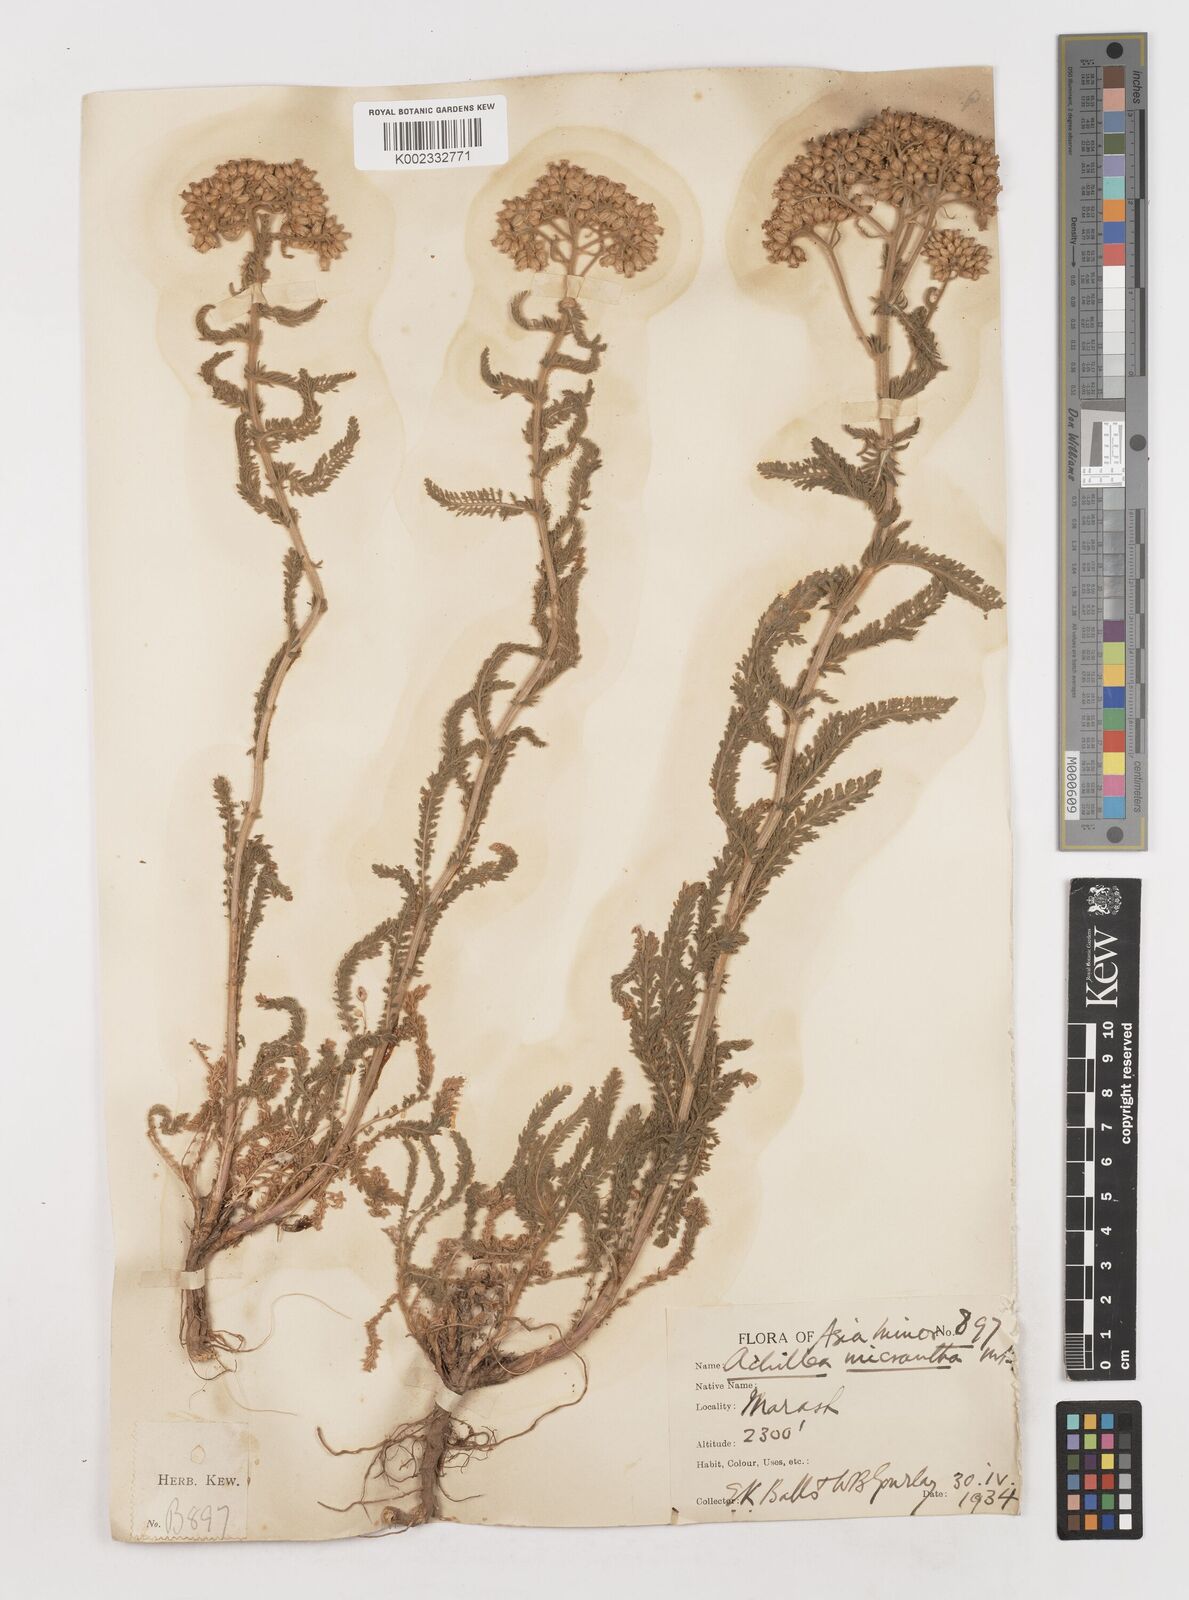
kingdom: Plantae
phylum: Tracheophyta
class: Magnoliopsida
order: Asterales
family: Asteraceae
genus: Achillea
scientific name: Achillea micrantha
